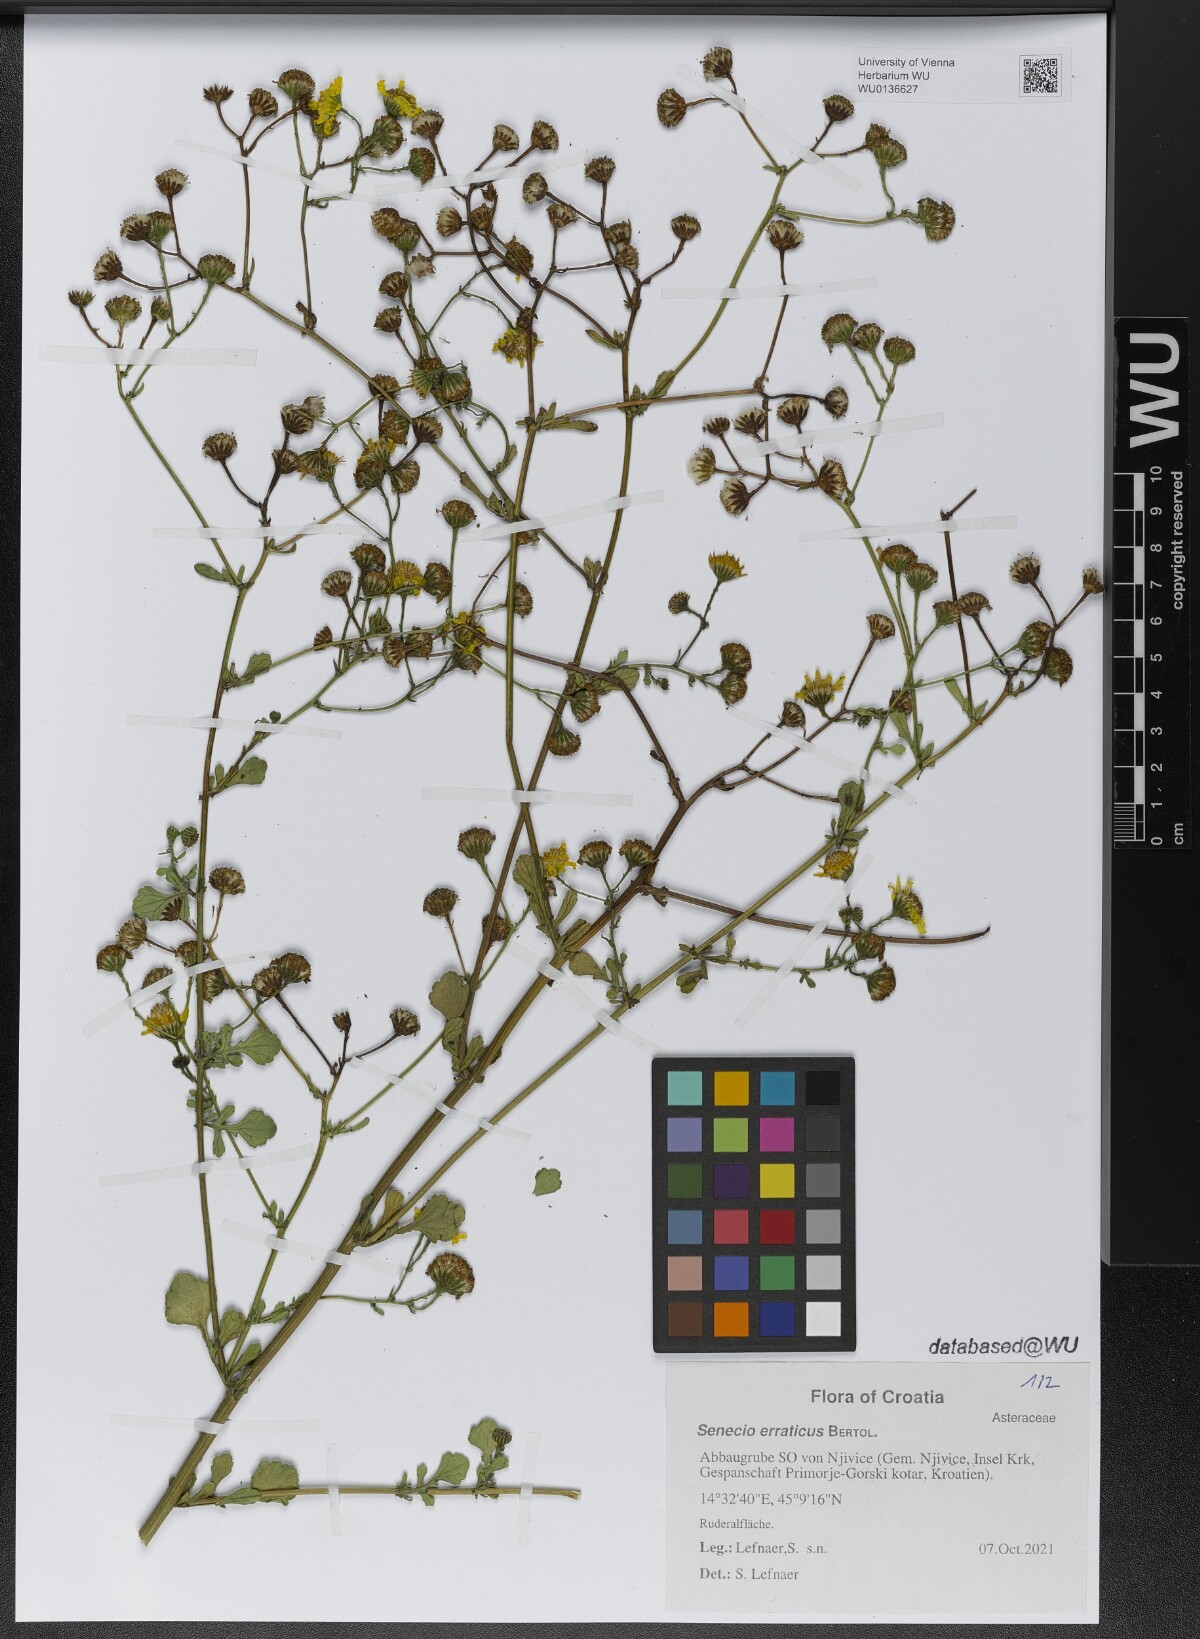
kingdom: Plantae
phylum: Tracheophyta
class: Magnoliopsida
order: Asterales
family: Asteraceae
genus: Jacobaea
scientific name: Jacobaea erratica
